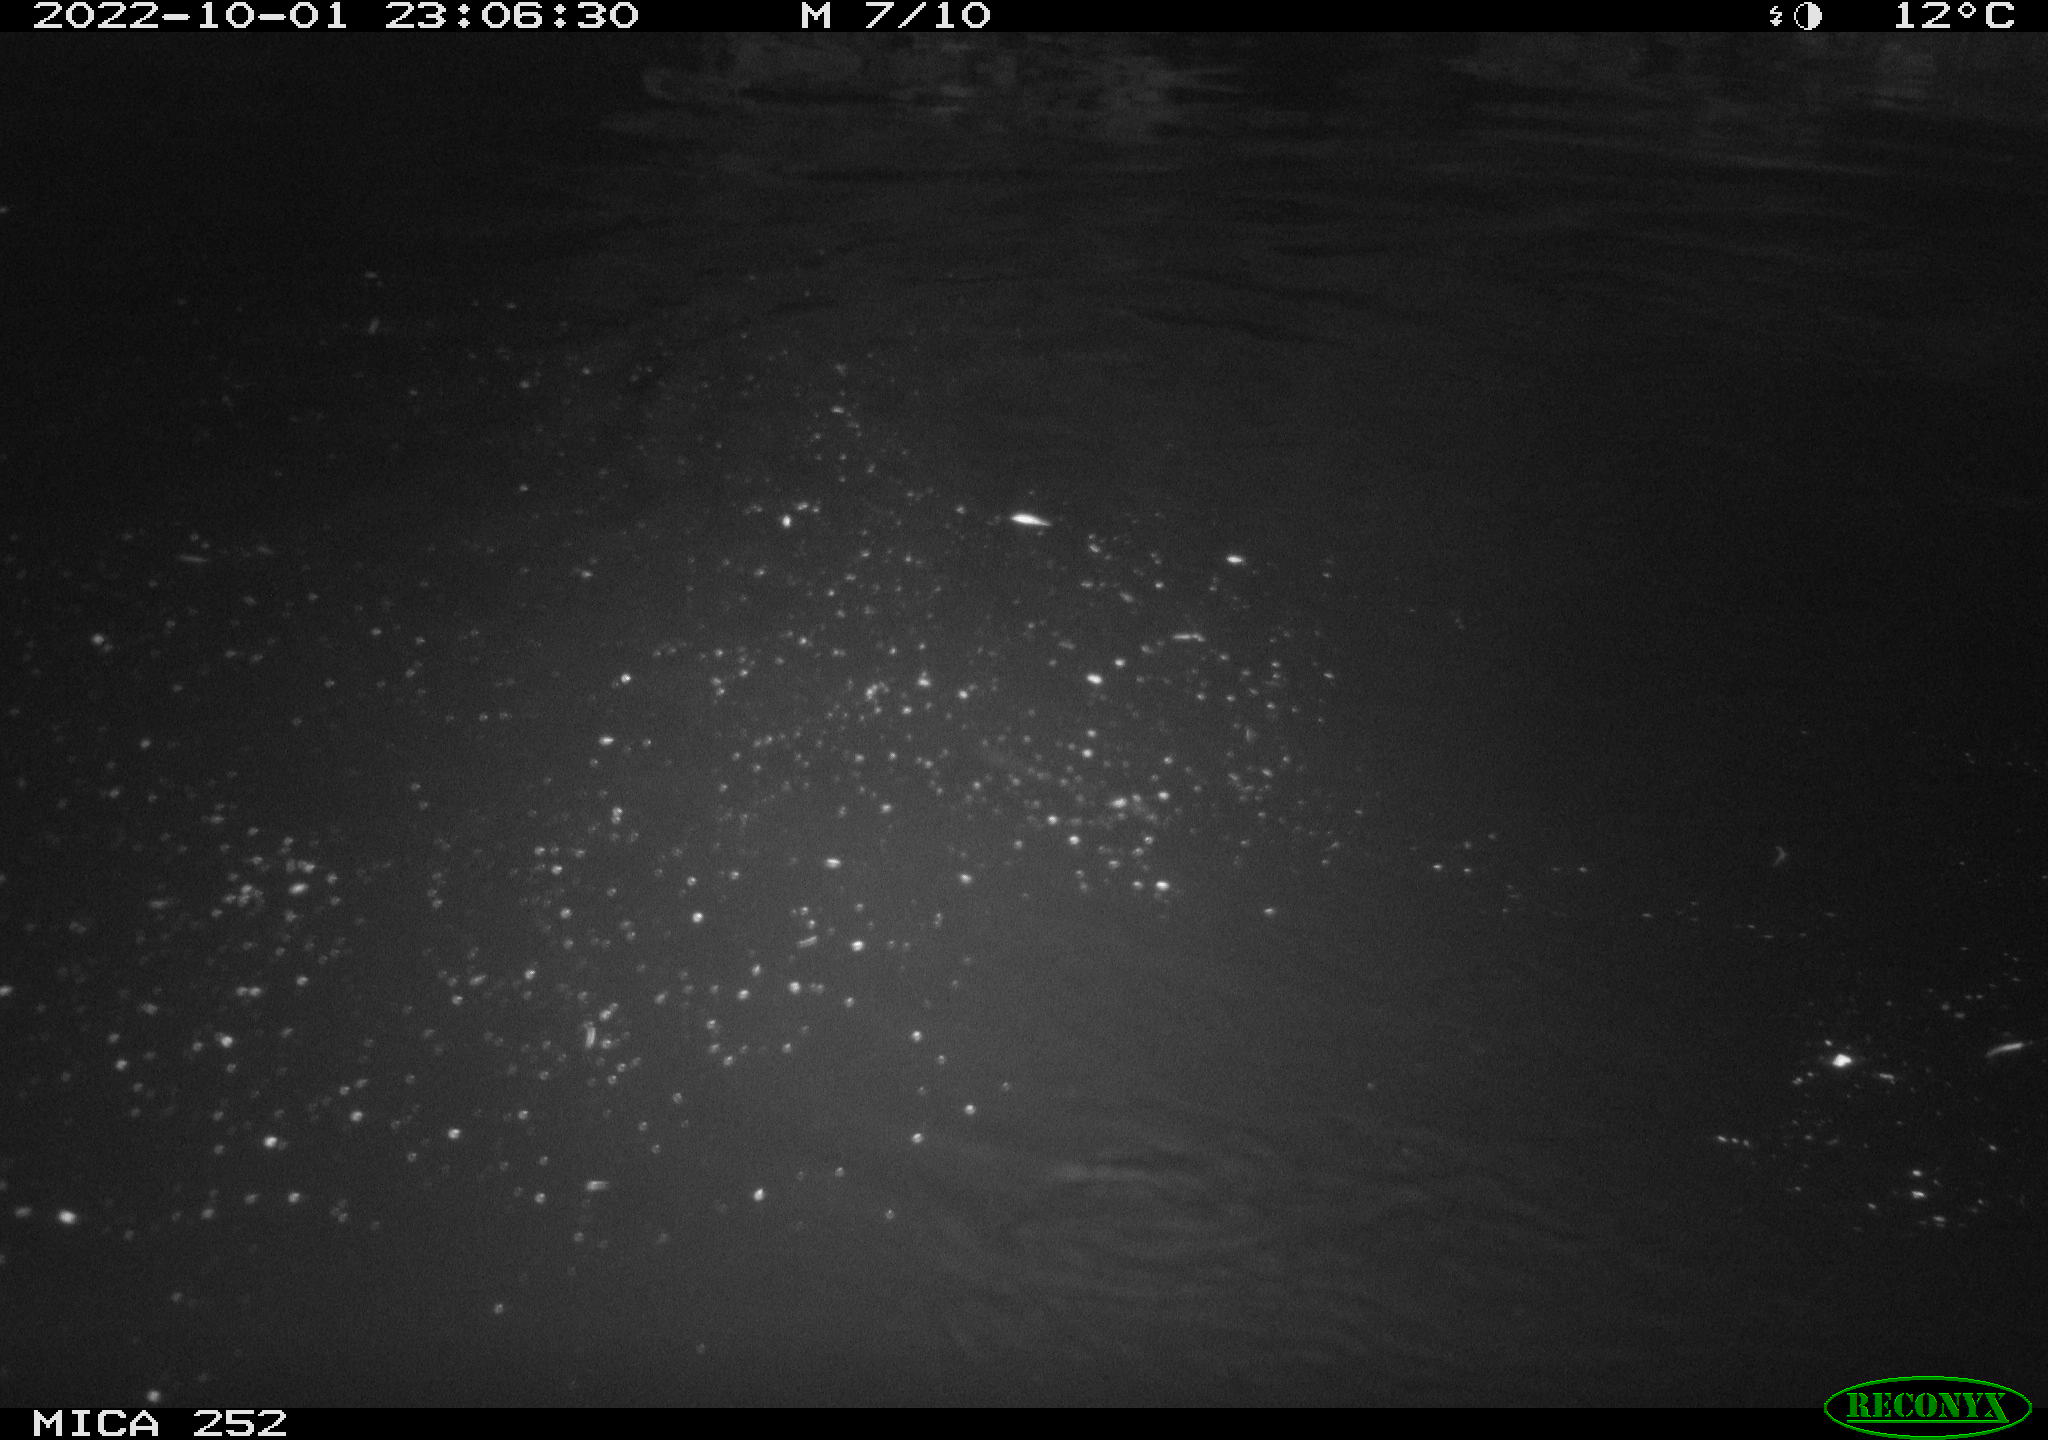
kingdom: Animalia
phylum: Chordata
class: Mammalia
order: Rodentia
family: Castoridae
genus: Castor
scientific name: Castor fiber
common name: Eurasian beaver
